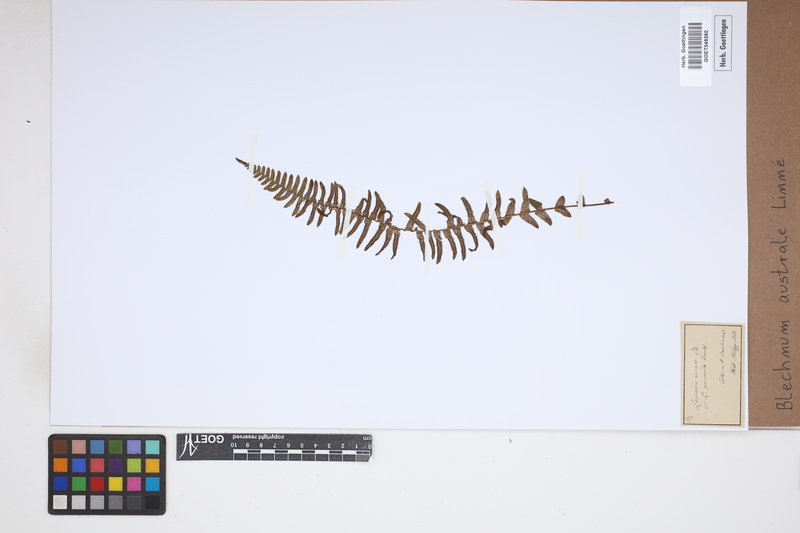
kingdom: Plantae
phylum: Tracheophyta
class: Polypodiopsida
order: Polypodiales
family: Blechnaceae
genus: Blechnum
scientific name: Blechnum australe
